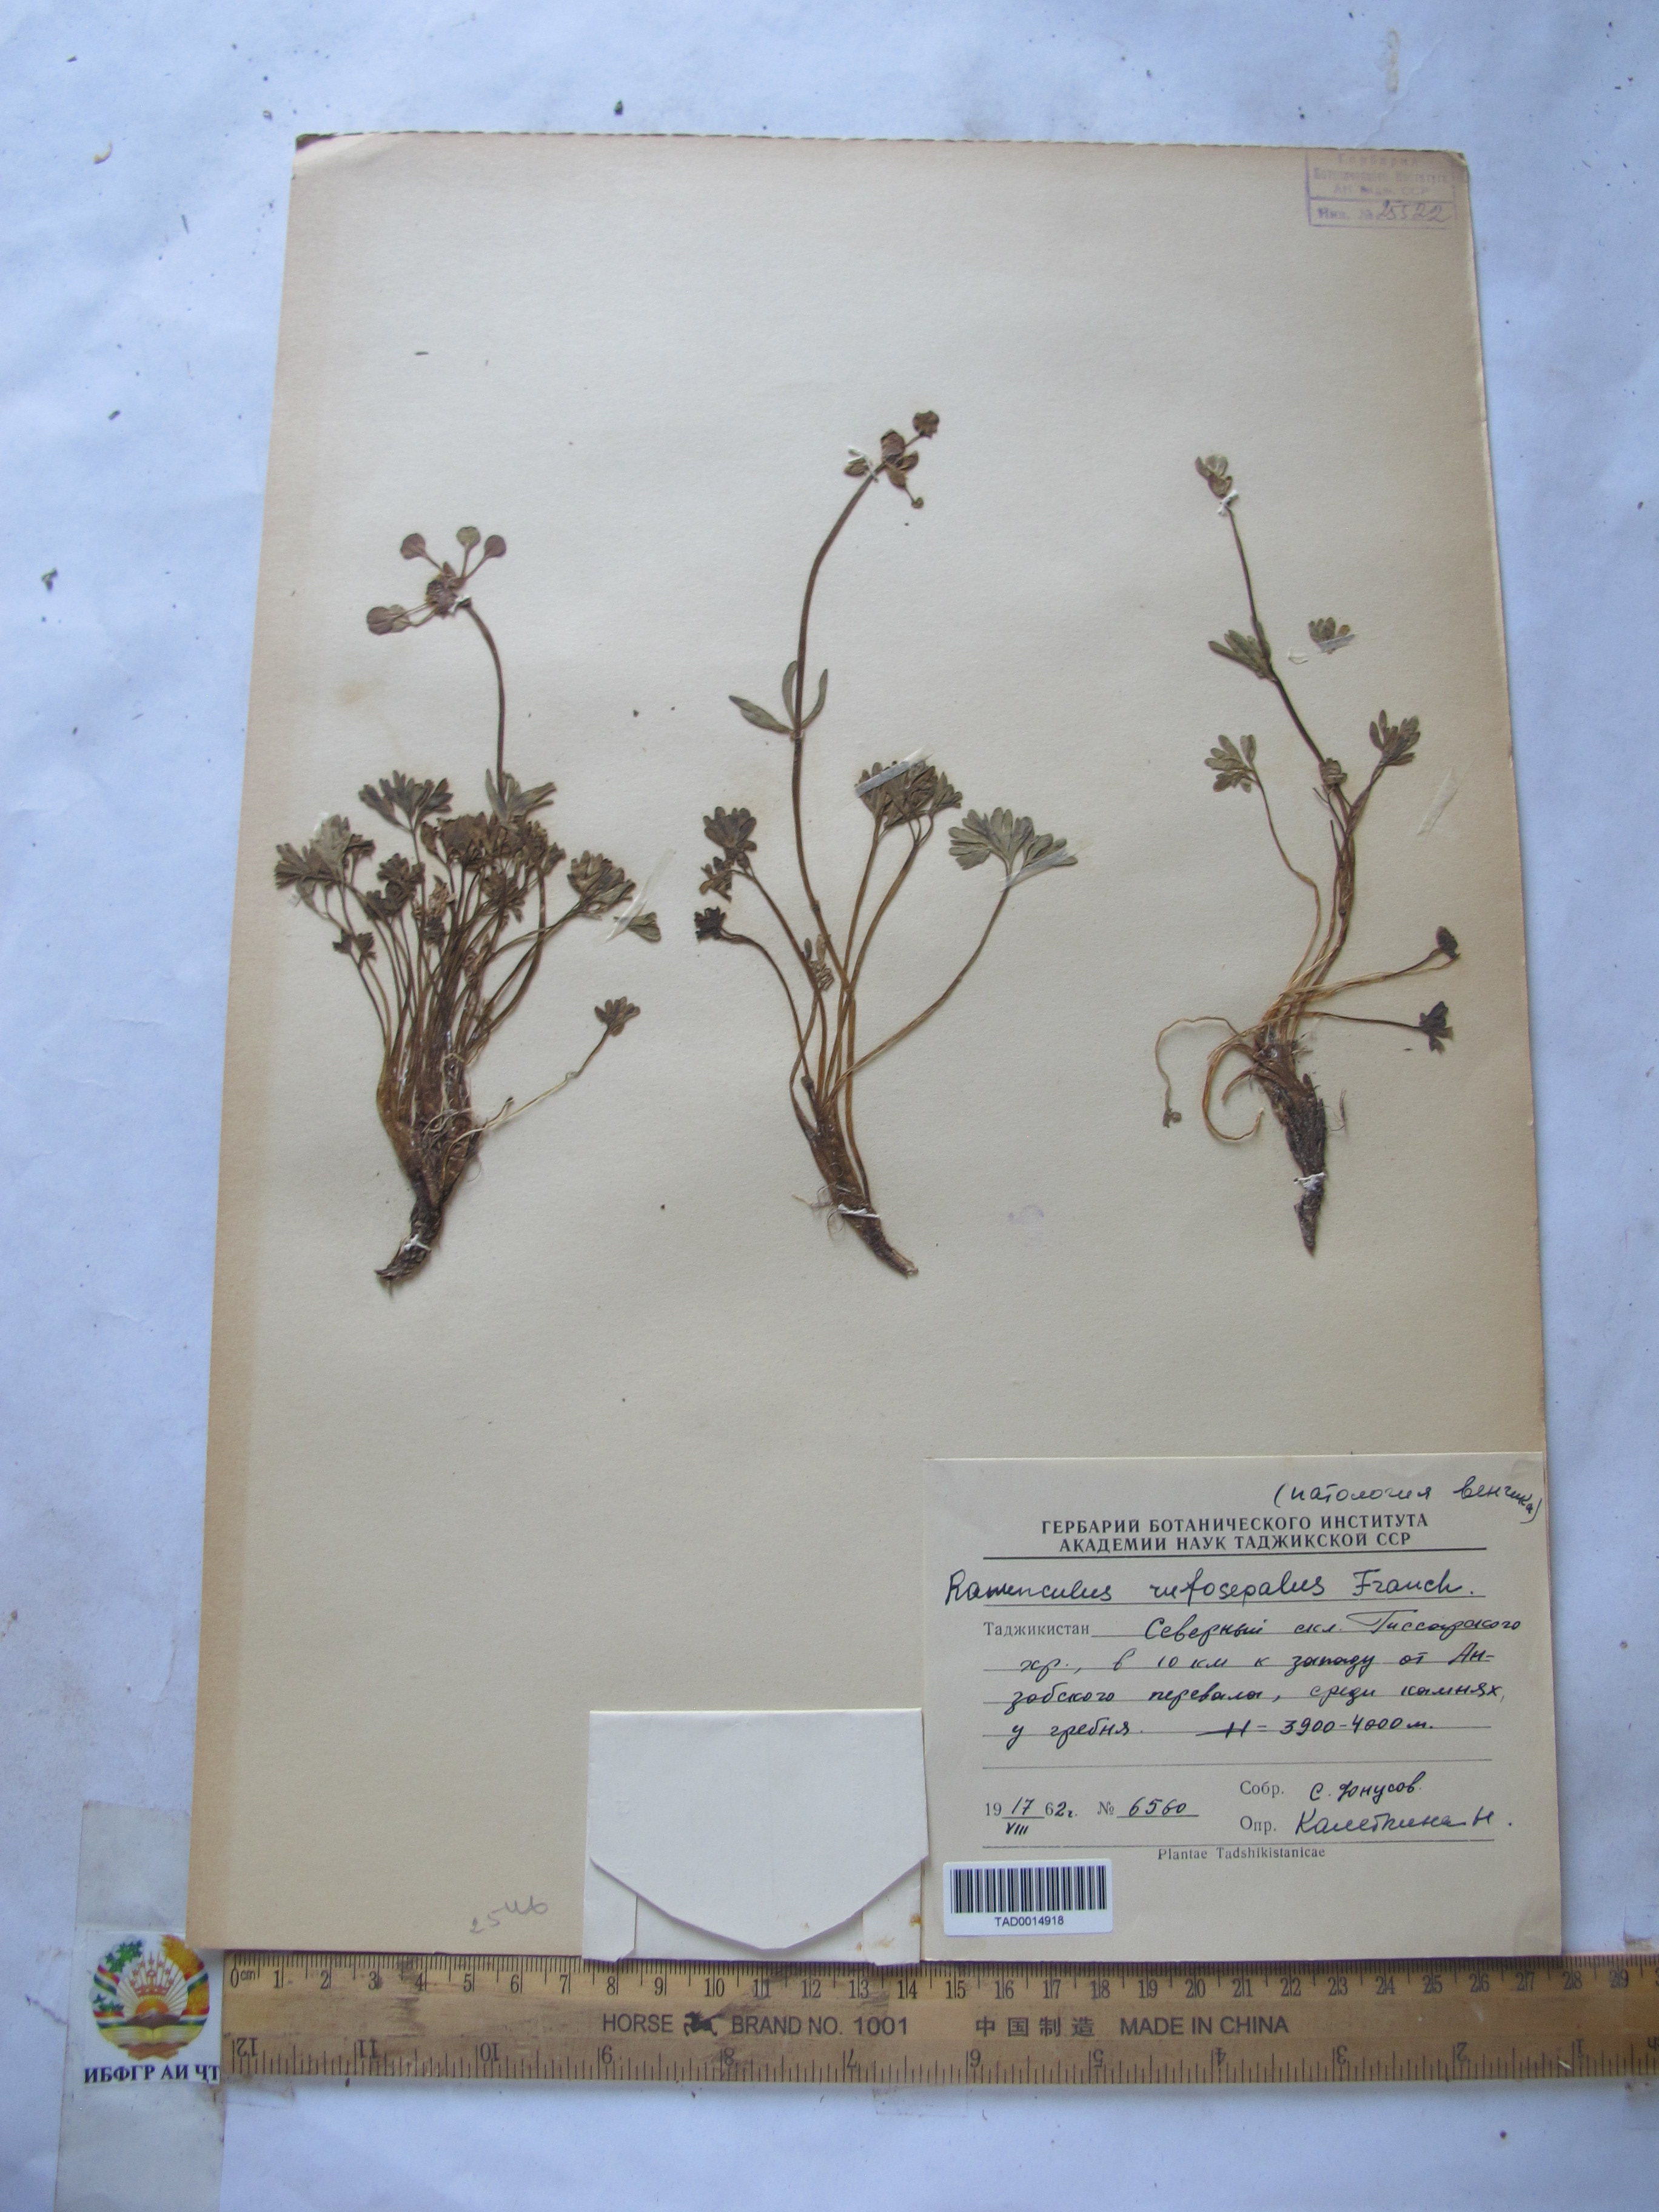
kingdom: Plantae
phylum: Tracheophyta
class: Magnoliopsida
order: Ranunculales
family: Ranunculaceae
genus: Ranunculus
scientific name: Ranunculus rufosepalus
